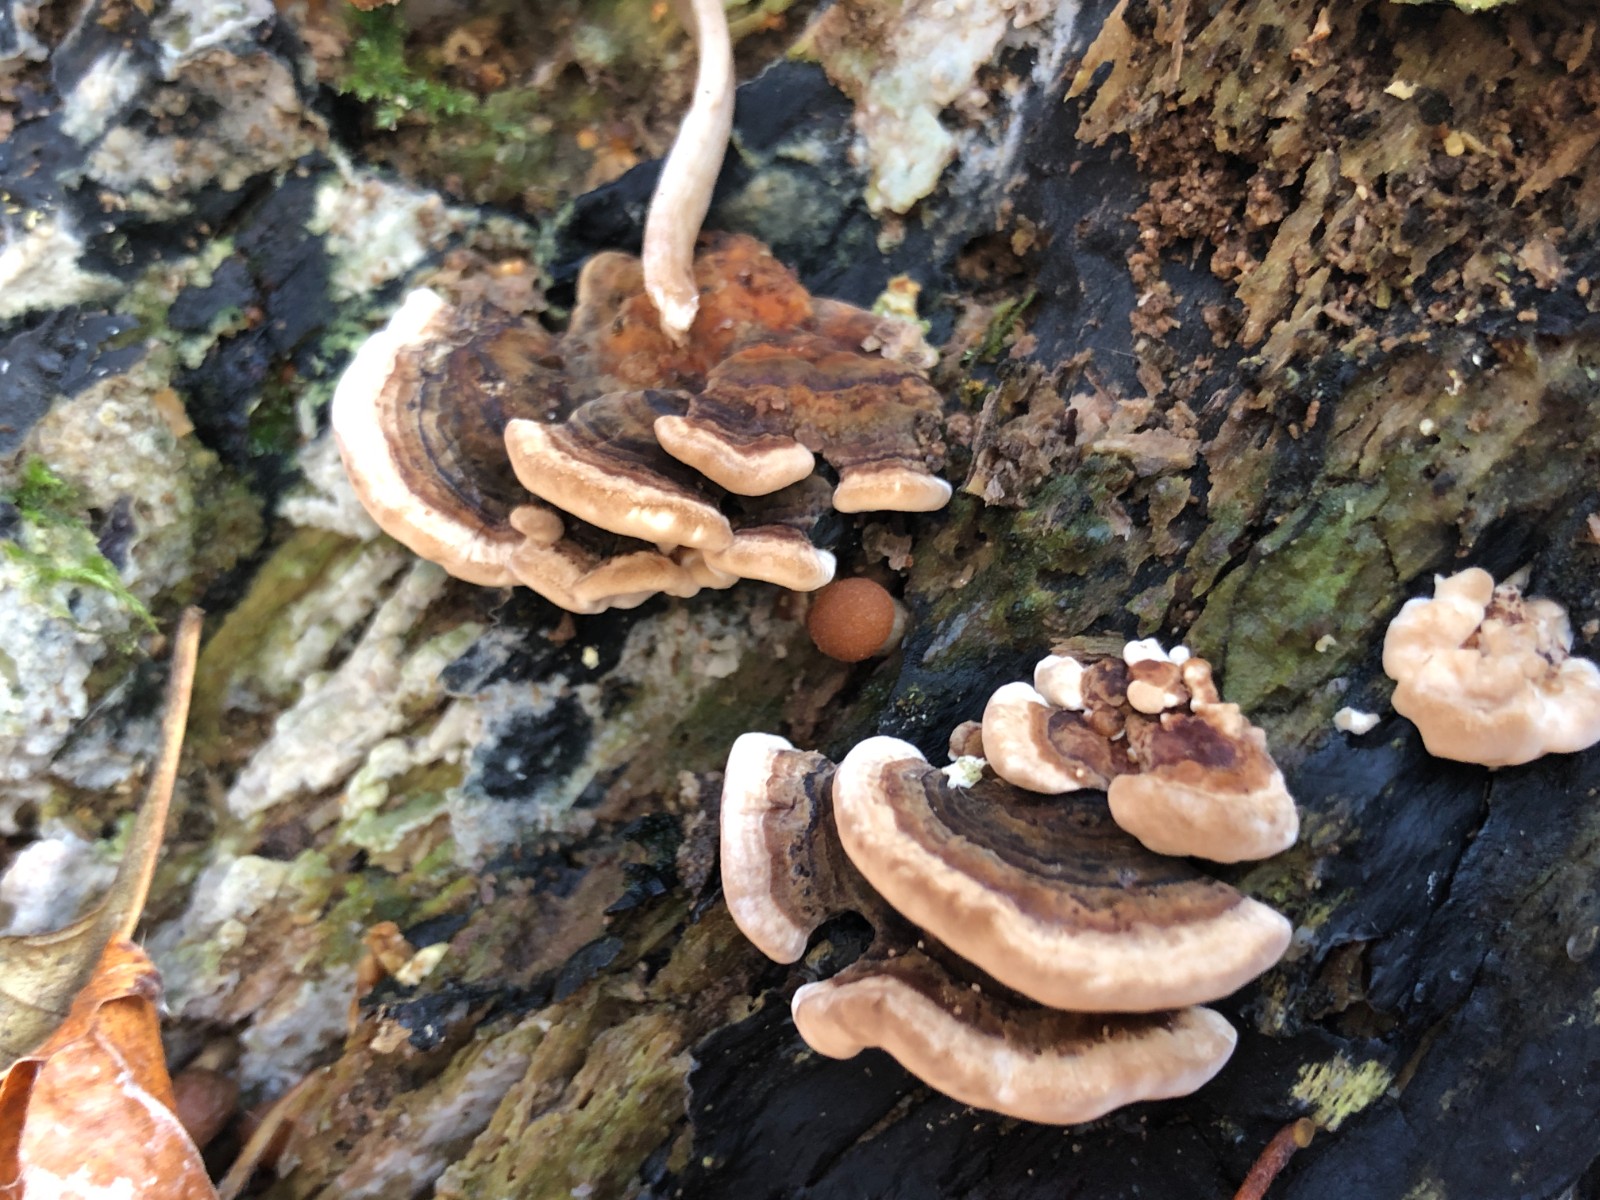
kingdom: Fungi
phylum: Basidiomycota
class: Agaricomycetes
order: Polyporales
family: Polyporaceae
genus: Trametes
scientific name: Trametes versicolor
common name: broget læderporesvamp
